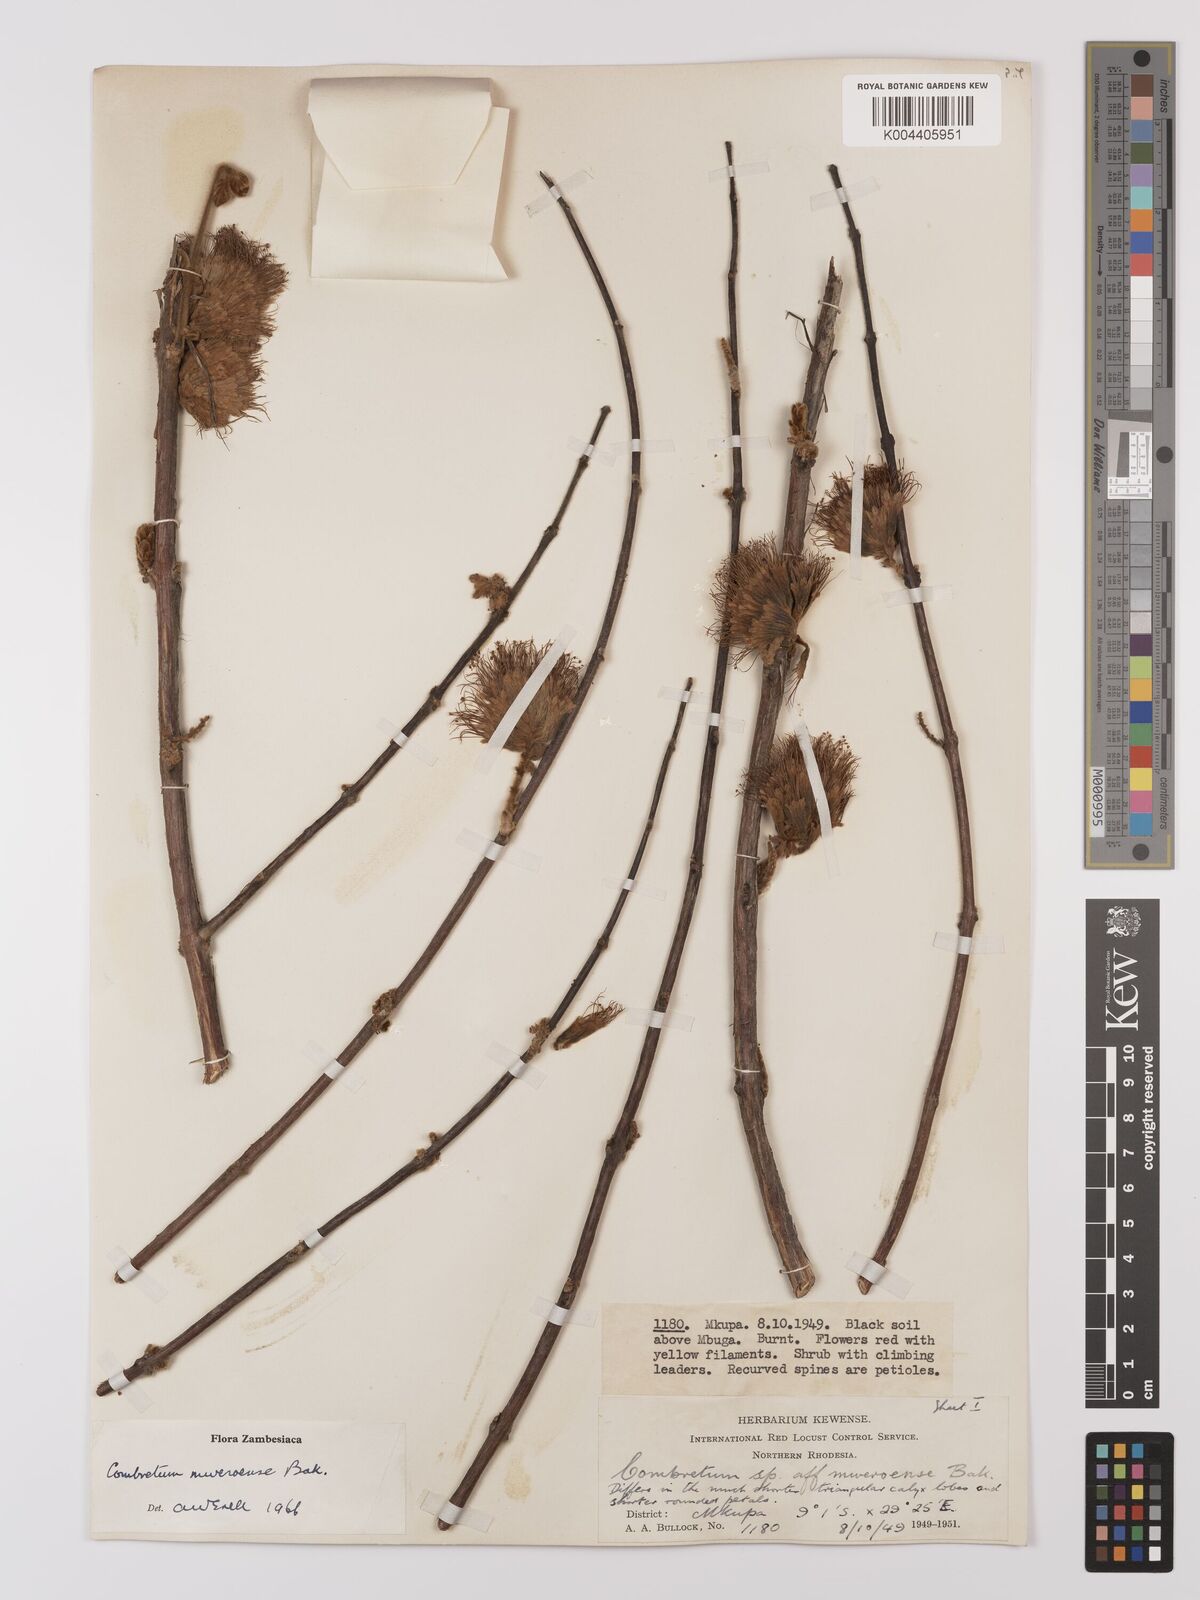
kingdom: Plantae
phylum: Tracheophyta
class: Magnoliopsida
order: Myrtales
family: Combretaceae
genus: Combretum
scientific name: Combretum mweroense
